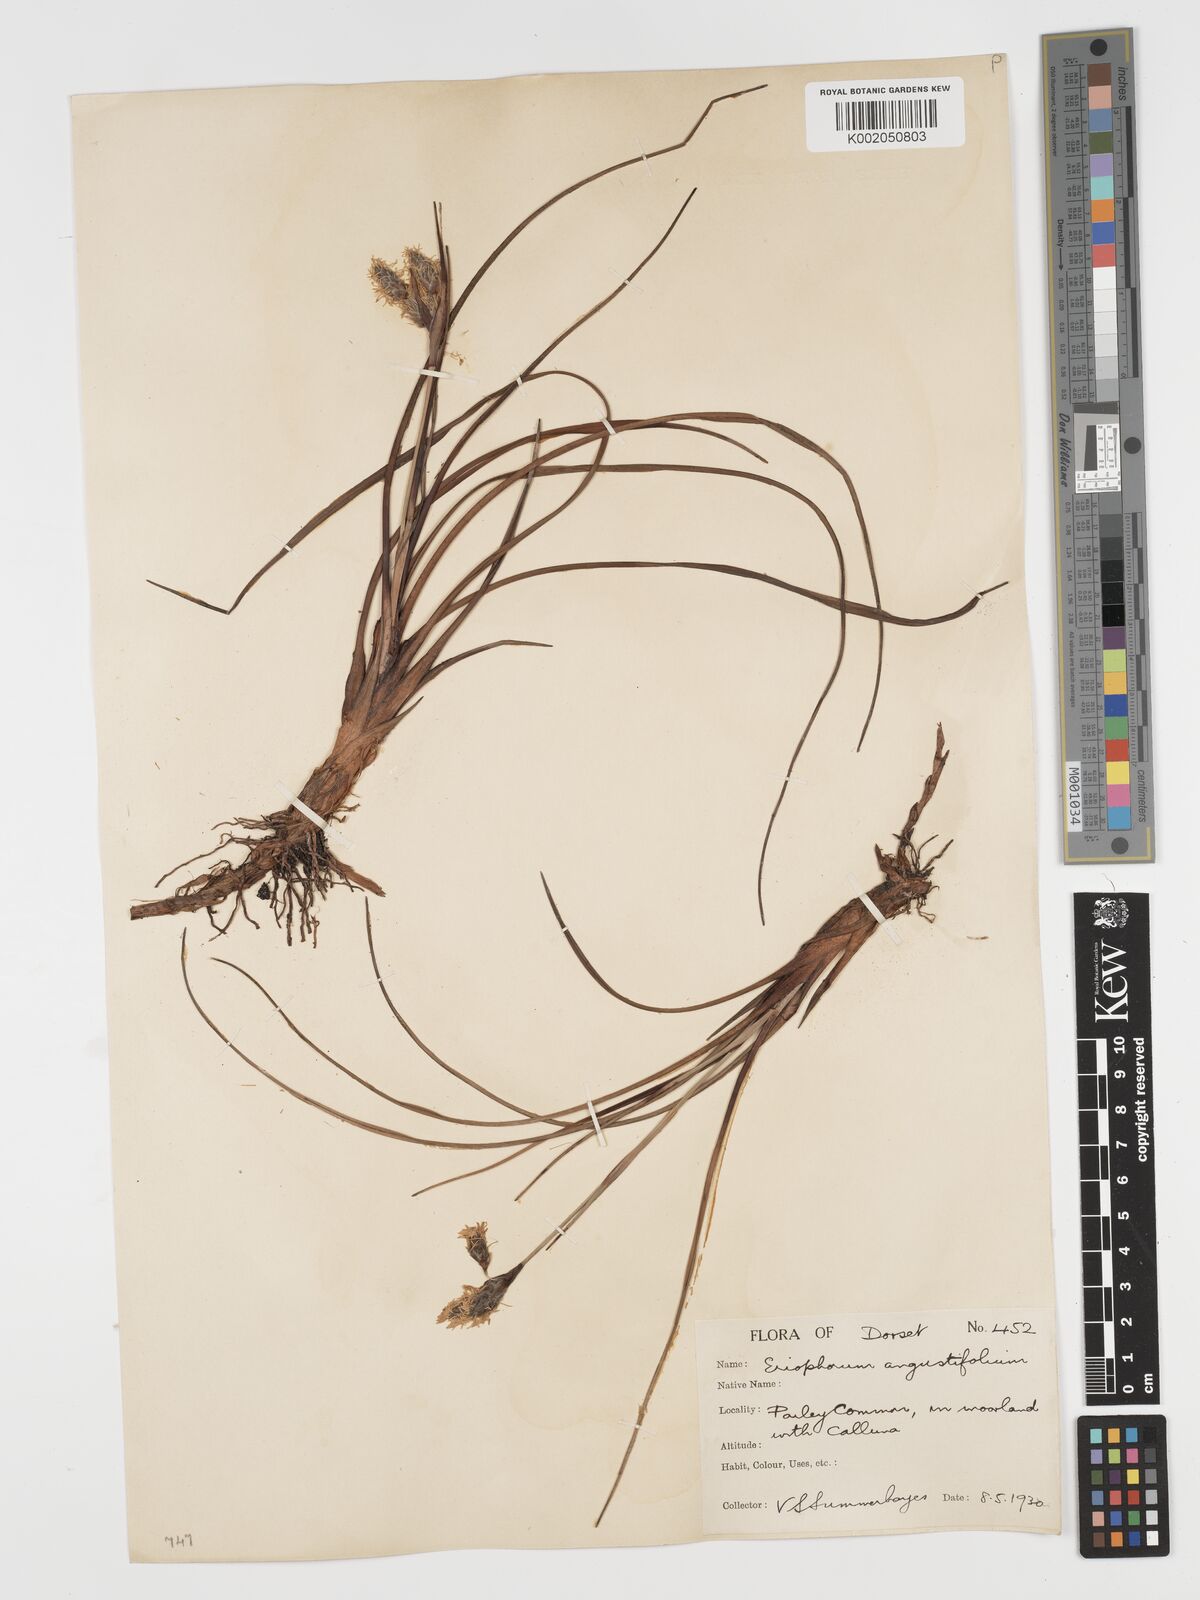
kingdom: Plantae
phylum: Tracheophyta
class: Liliopsida
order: Poales
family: Cyperaceae
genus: Eriophorum
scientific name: Eriophorum angustifolium
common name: Common cottongrass
